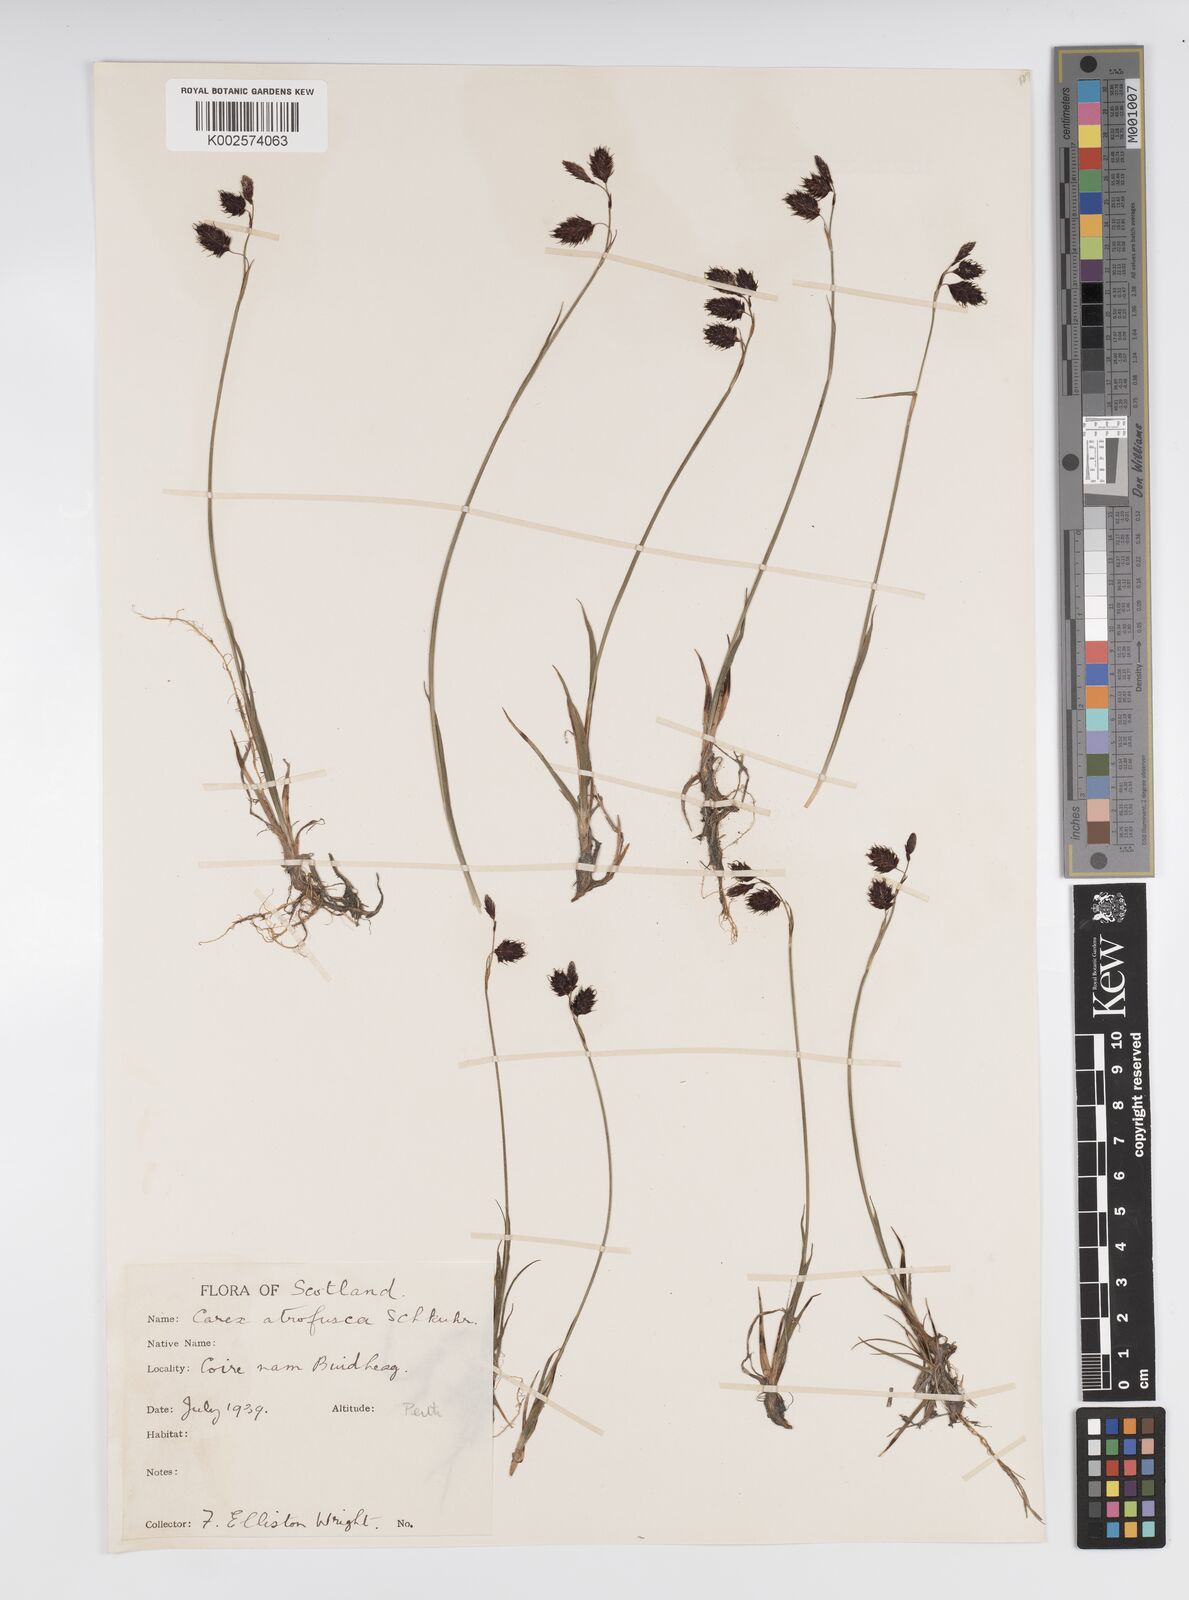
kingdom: Plantae
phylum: Tracheophyta
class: Liliopsida
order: Poales
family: Cyperaceae
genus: Carex
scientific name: Carex atrofusca
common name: Scorched alpine-sedge
